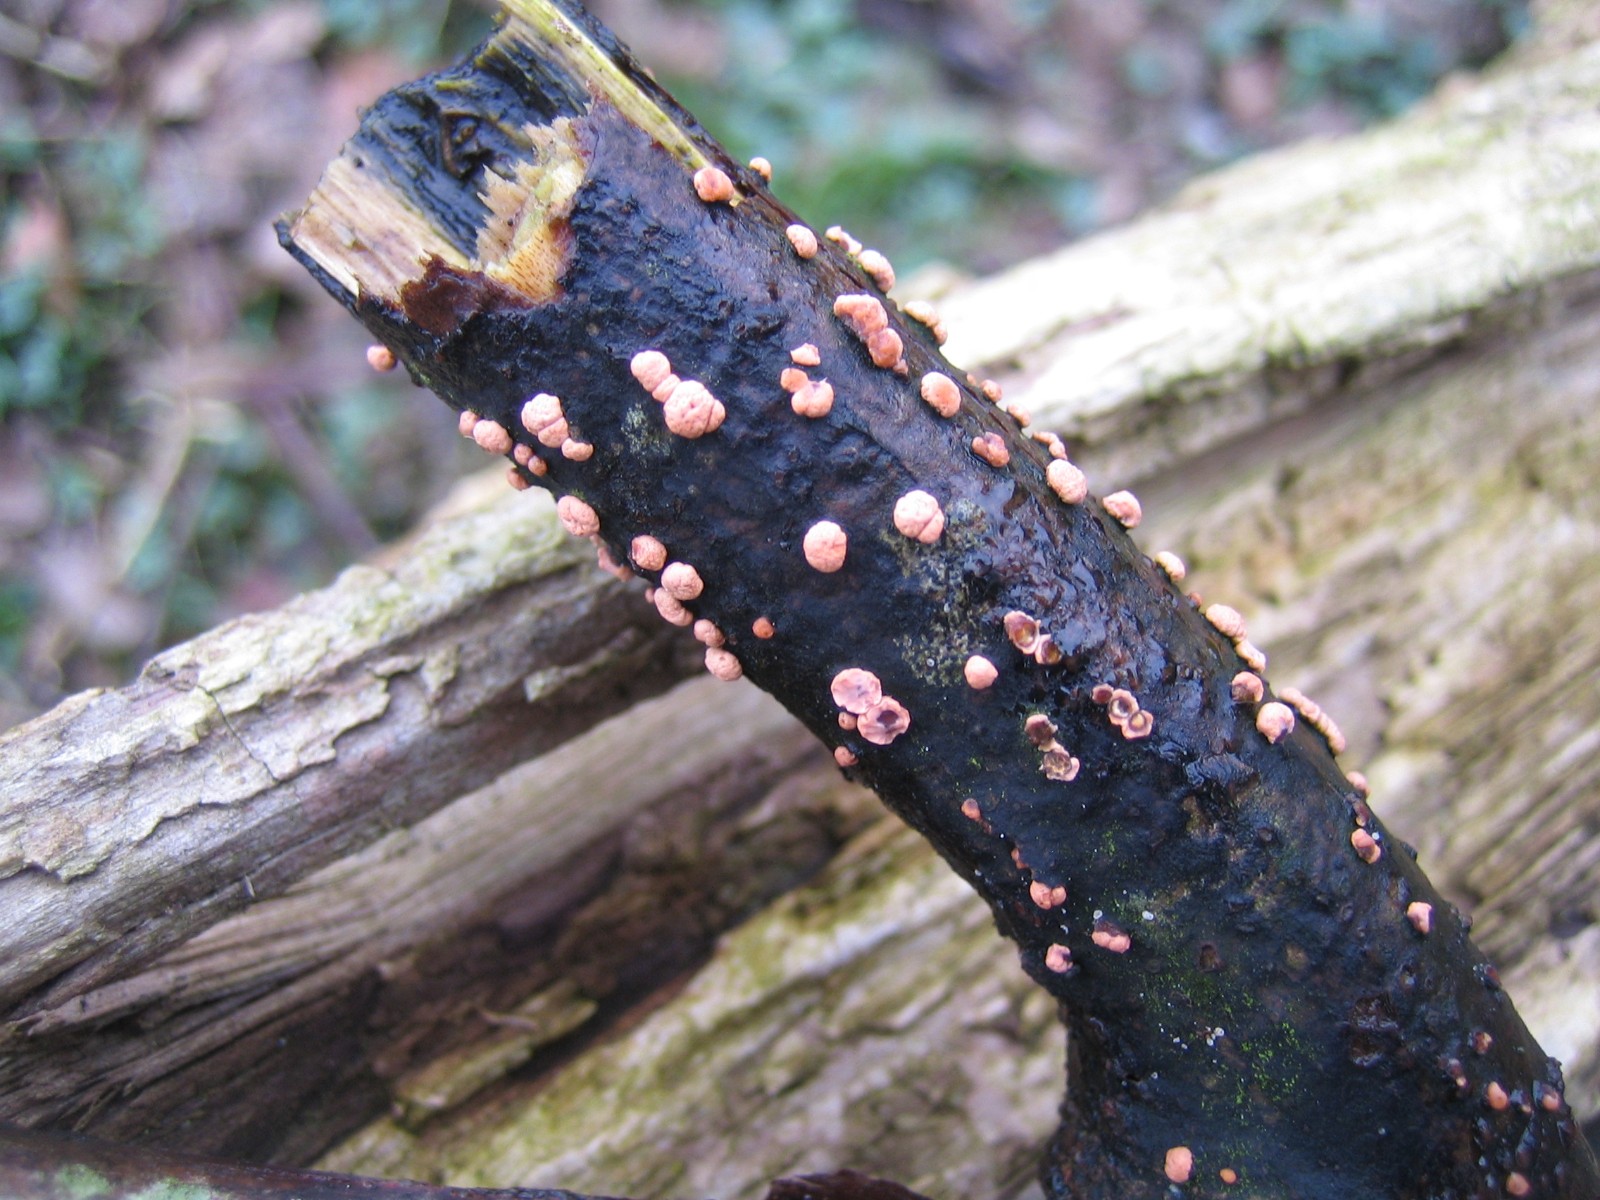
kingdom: Fungi
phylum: Ascomycota
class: Sordariomycetes
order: Hypocreales
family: Nectriaceae
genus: Nectria
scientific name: Nectria cinnabarina
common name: almindelig cinnobersvamp
